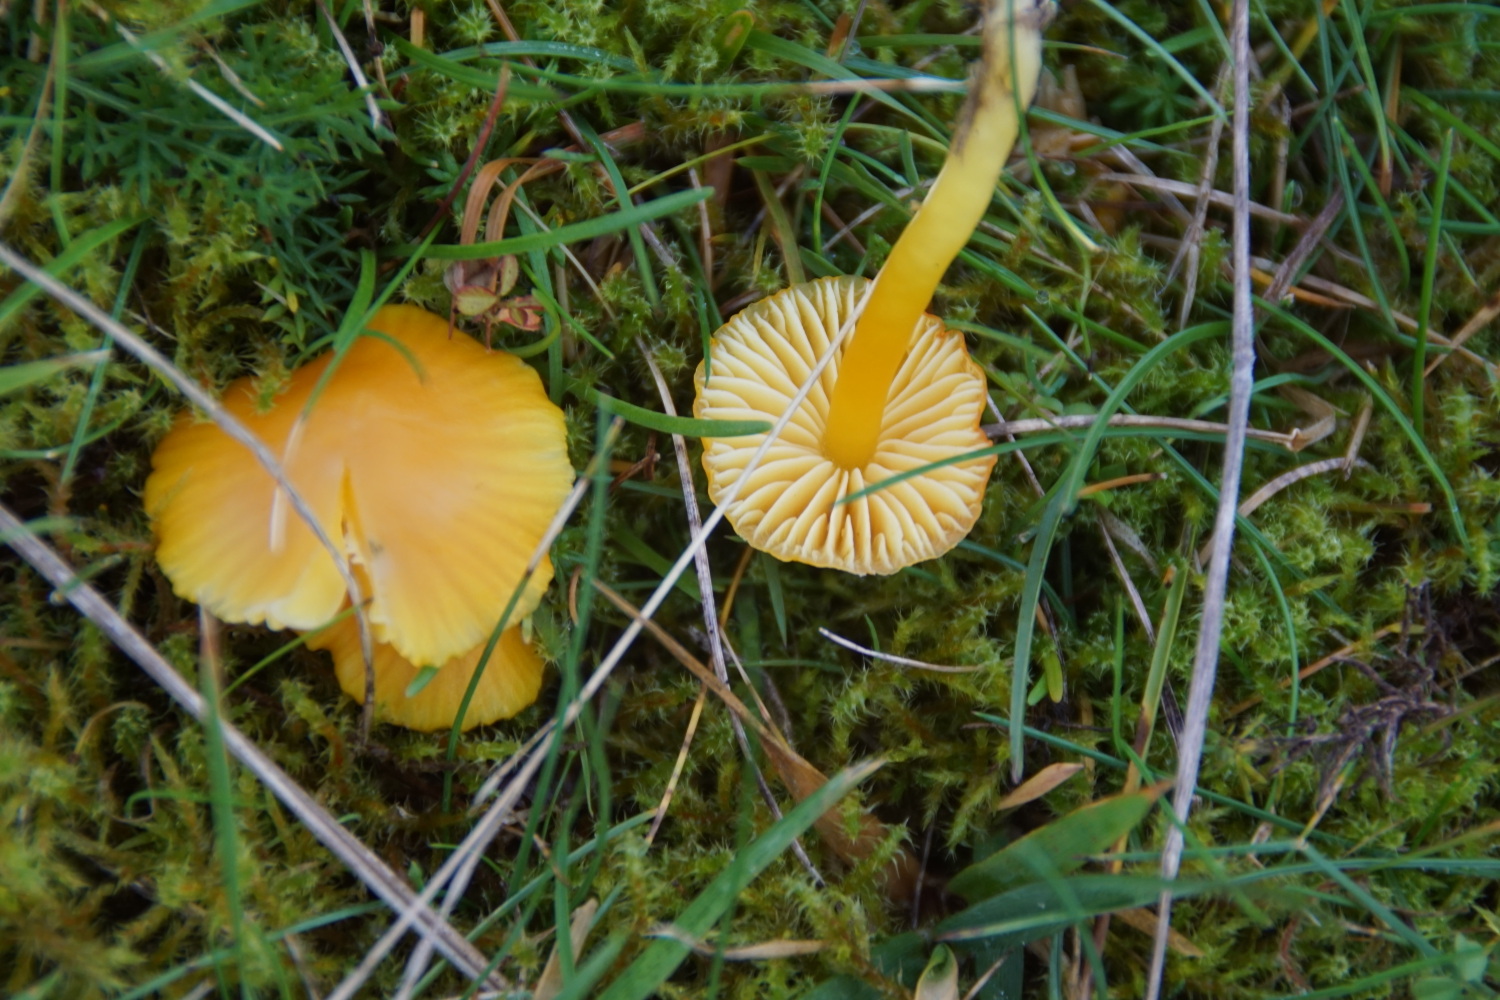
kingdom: Fungi
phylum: Basidiomycota
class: Agaricomycetes
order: Agaricales
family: Hygrophoraceae
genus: Hygrocybe
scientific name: Hygrocybe ceracea
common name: voksgul vokshat
